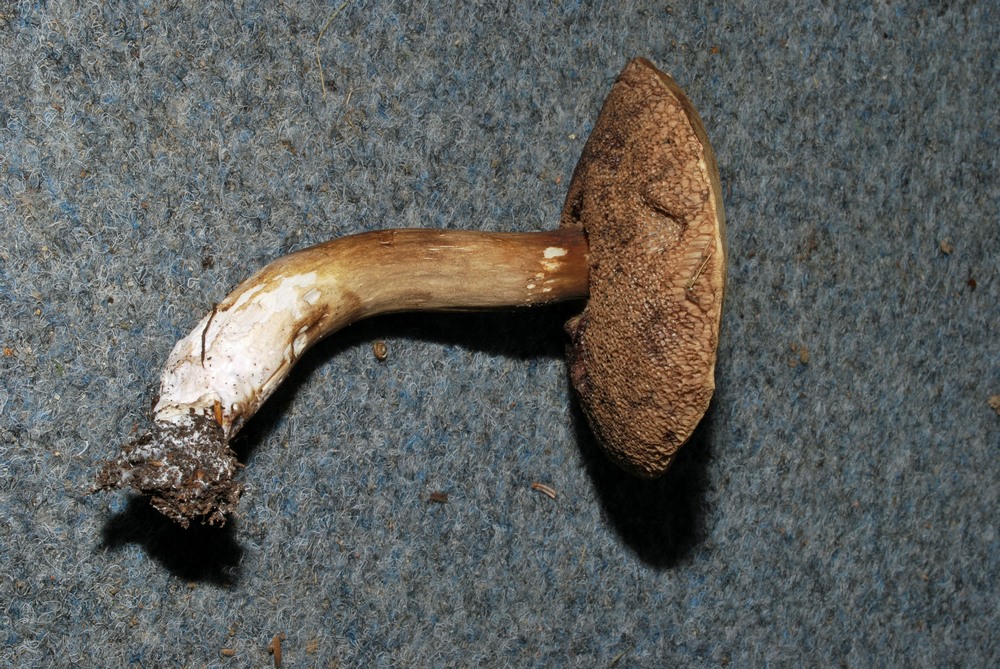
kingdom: Fungi
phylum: Basidiomycota
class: Agaricomycetes
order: Boletales
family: Boletaceae
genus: Porphyrellus
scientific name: Porphyrellus porphyrosporus
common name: sodrørhat
